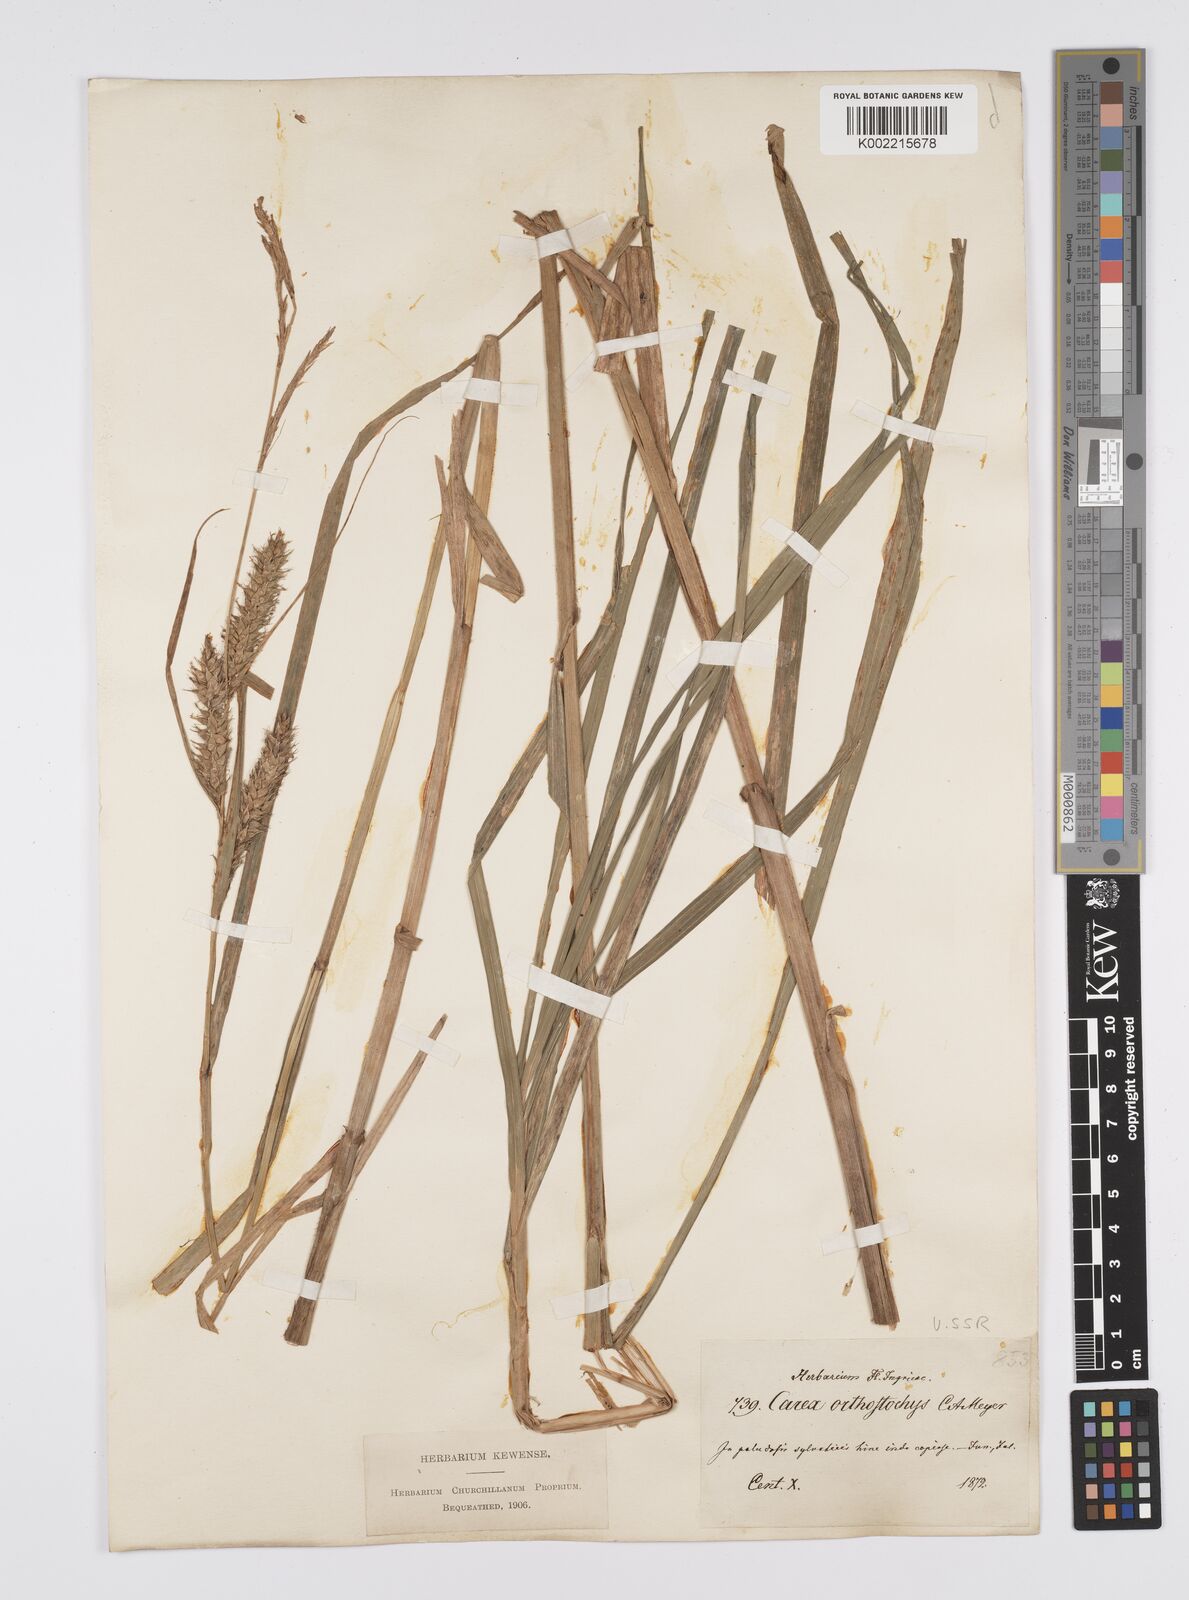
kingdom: Plantae
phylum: Tracheophyta
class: Liliopsida
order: Poales
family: Cyperaceae
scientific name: Cyperaceae
